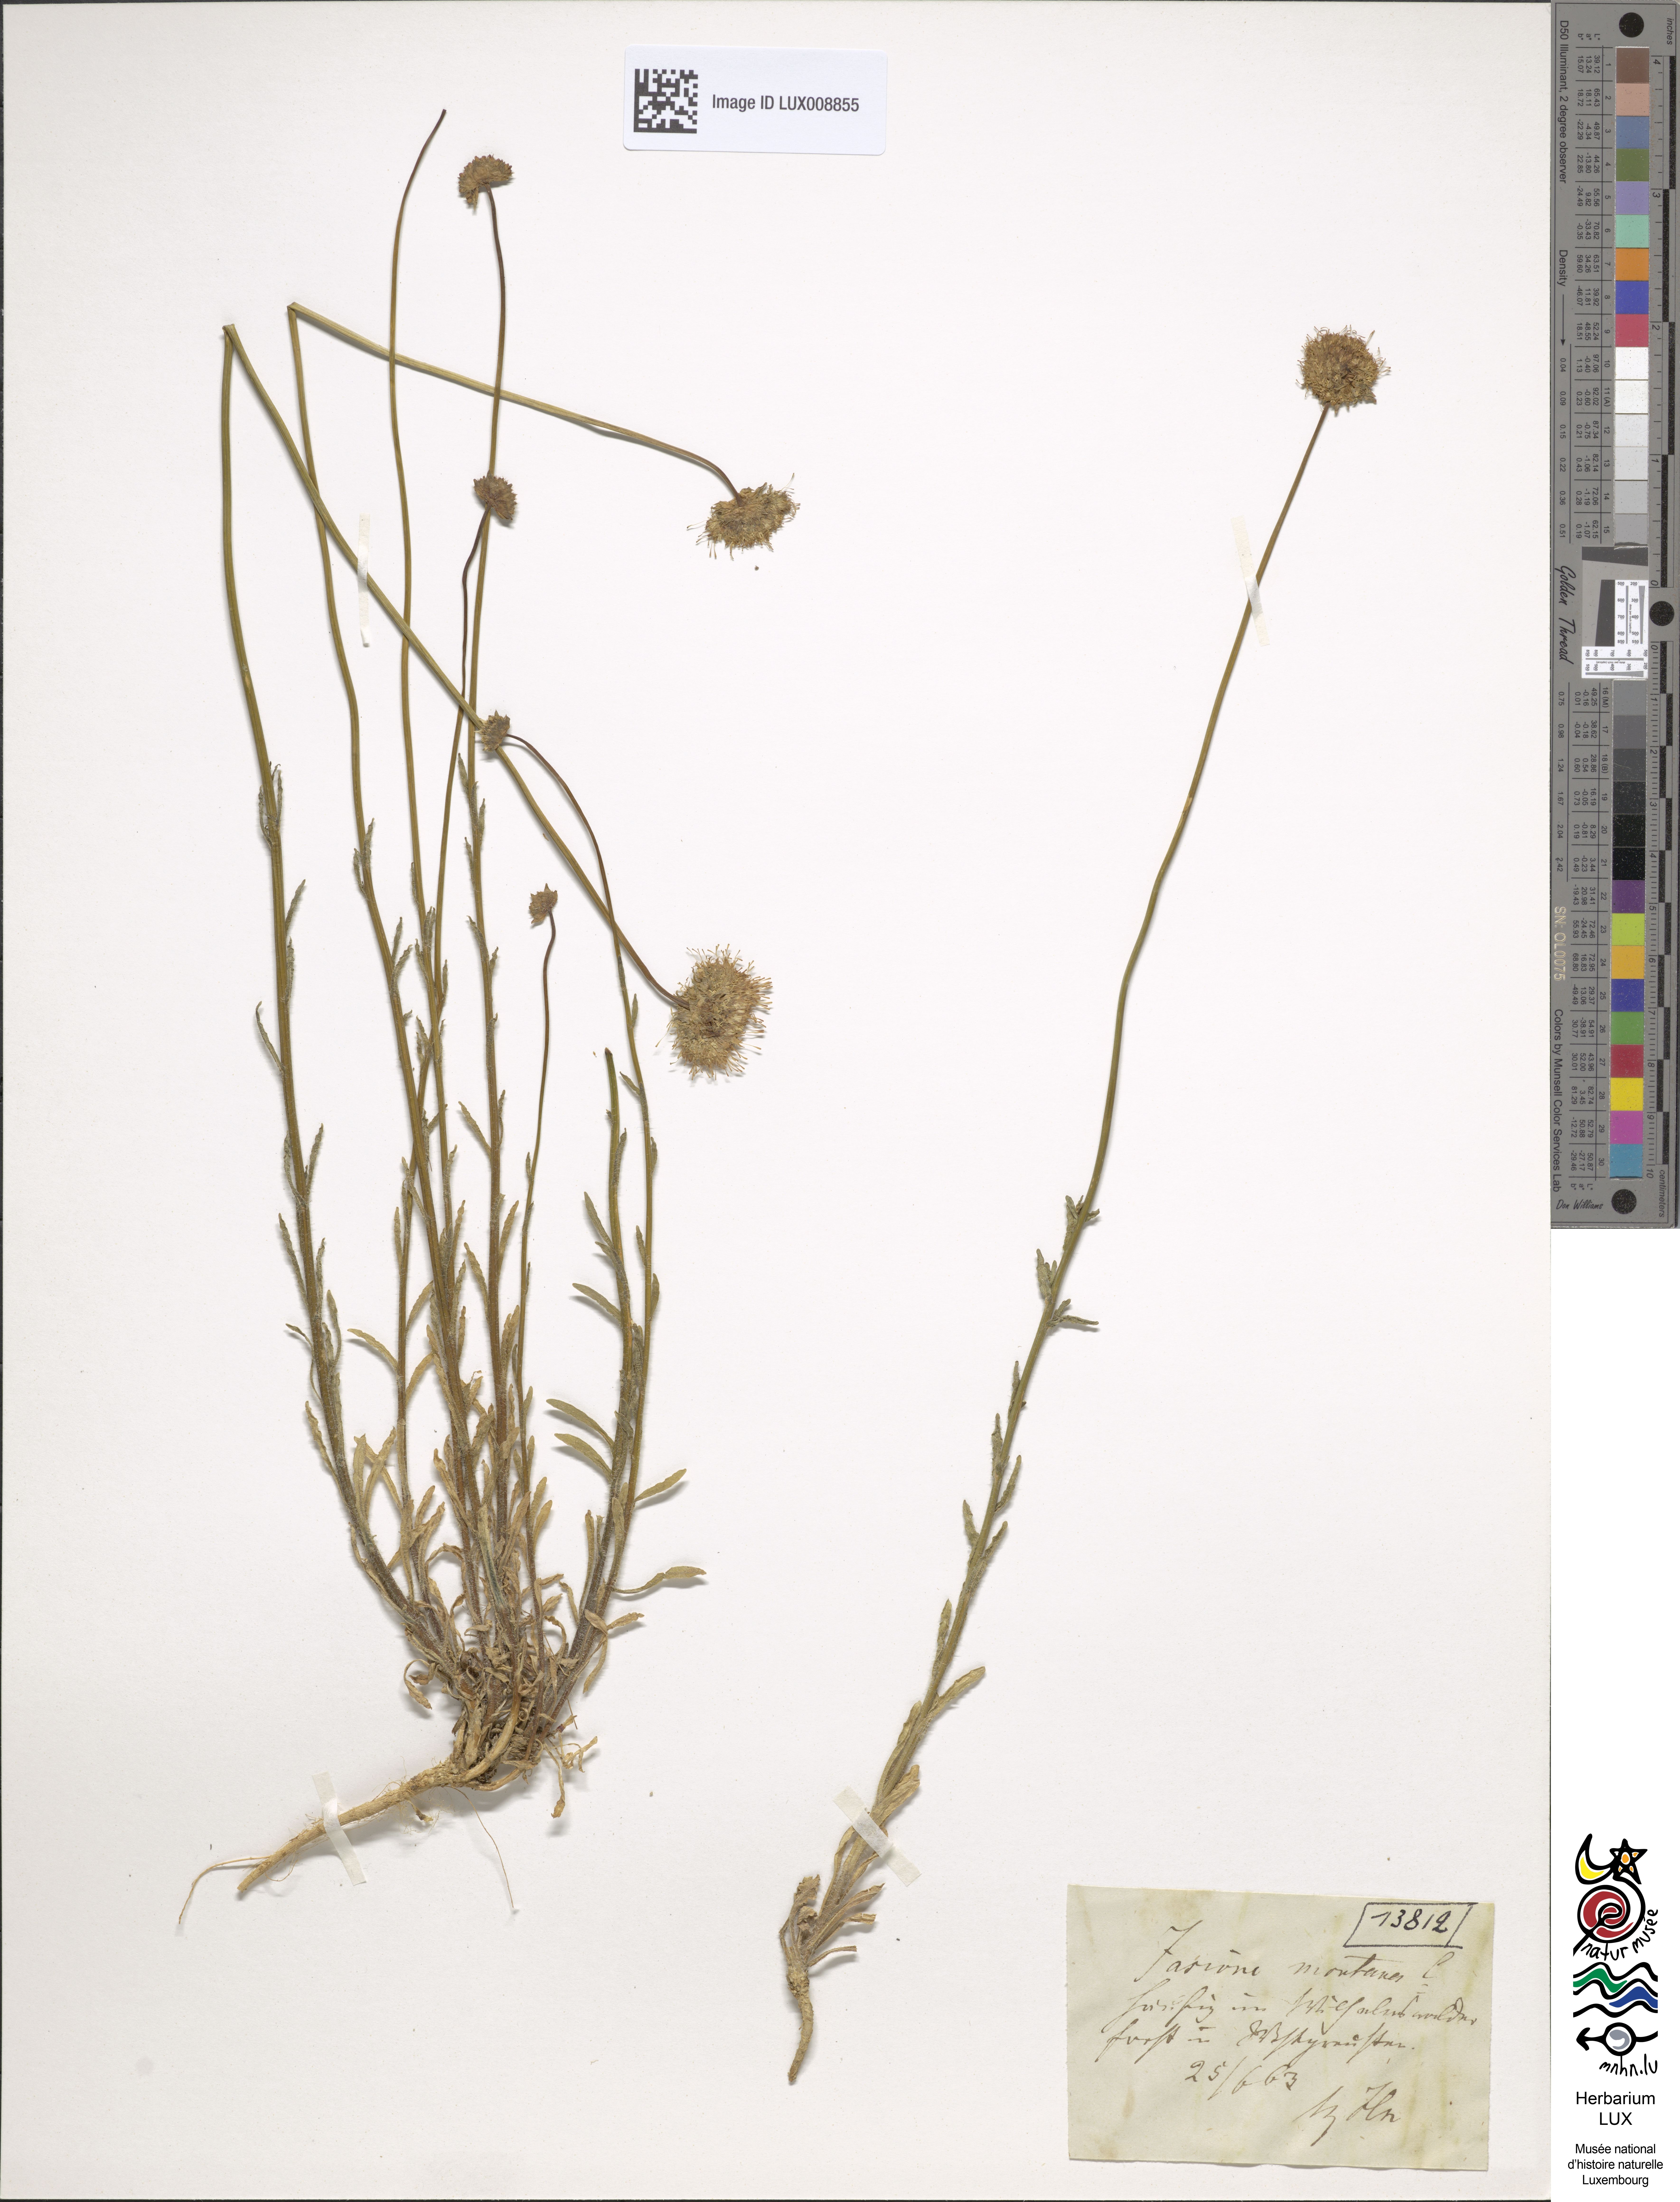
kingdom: Plantae
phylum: Tracheophyta
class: Magnoliopsida
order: Asterales
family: Campanulaceae
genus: Jasione
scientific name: Jasione montana
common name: Sheep's-bit
